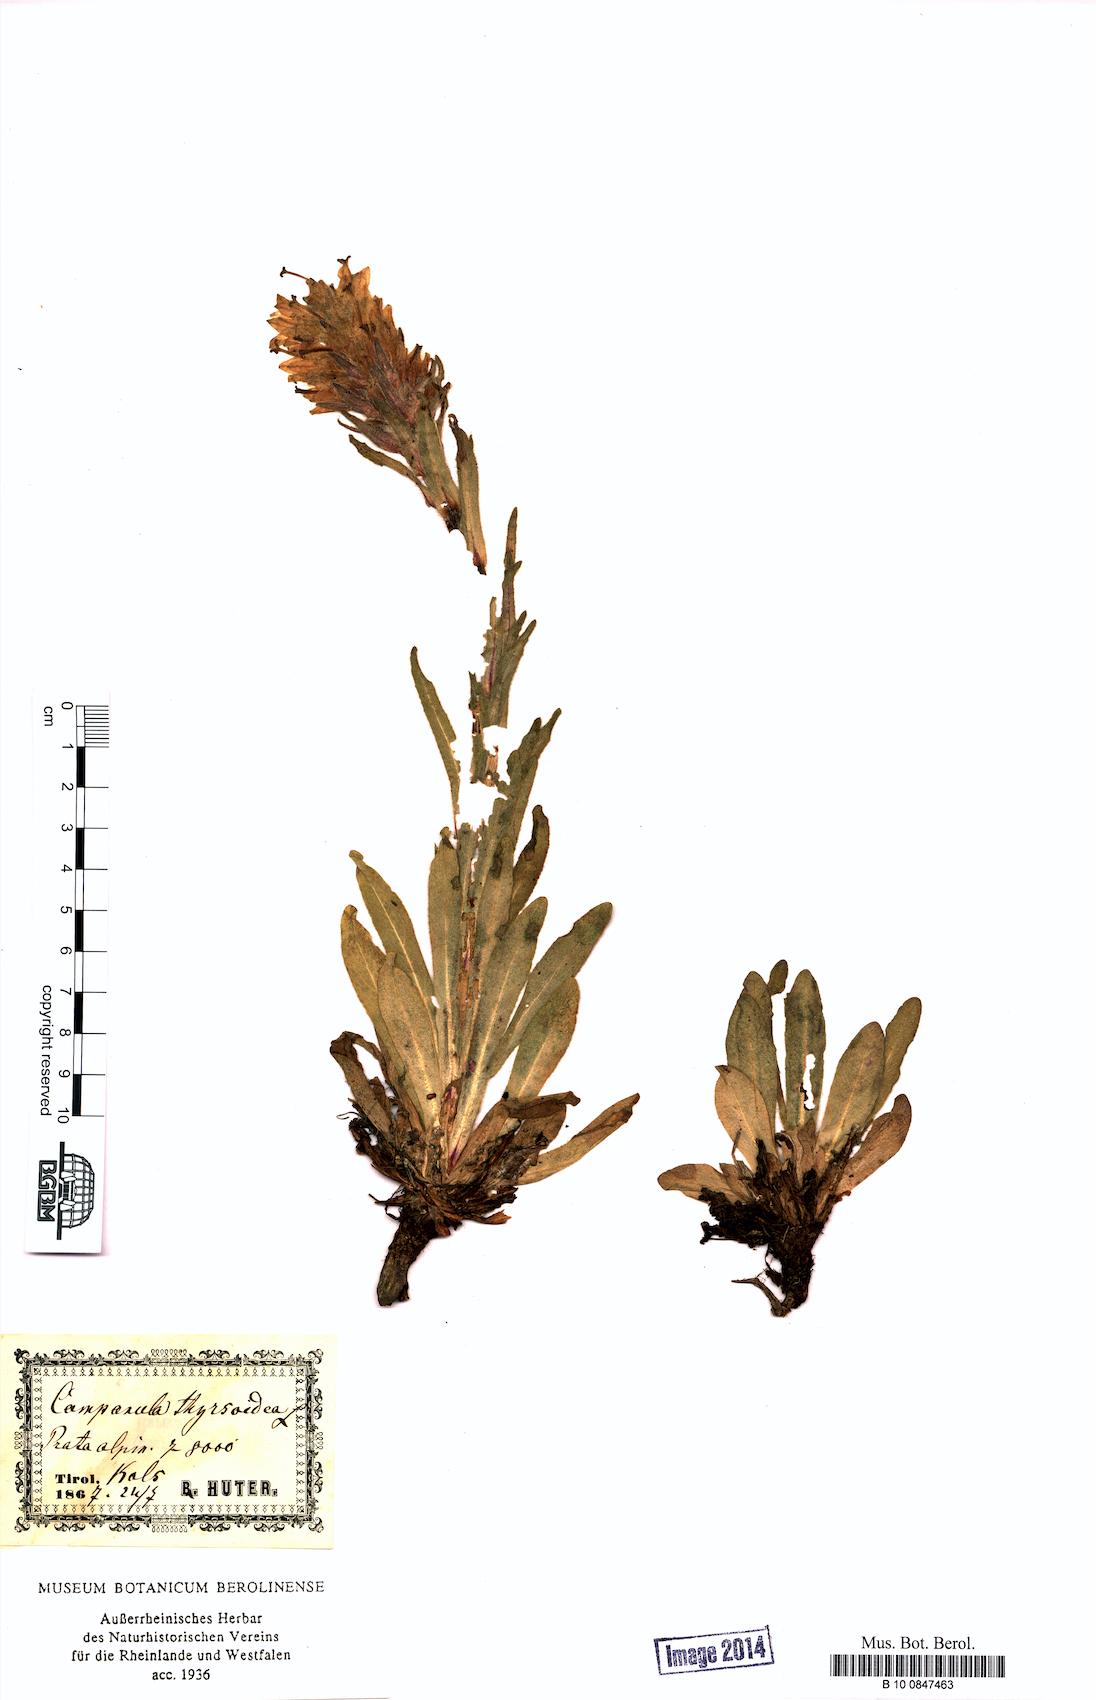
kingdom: Plantae
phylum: Tracheophyta
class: Magnoliopsida
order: Asterales
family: Campanulaceae
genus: Campanula
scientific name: Campanula thyrsoides
